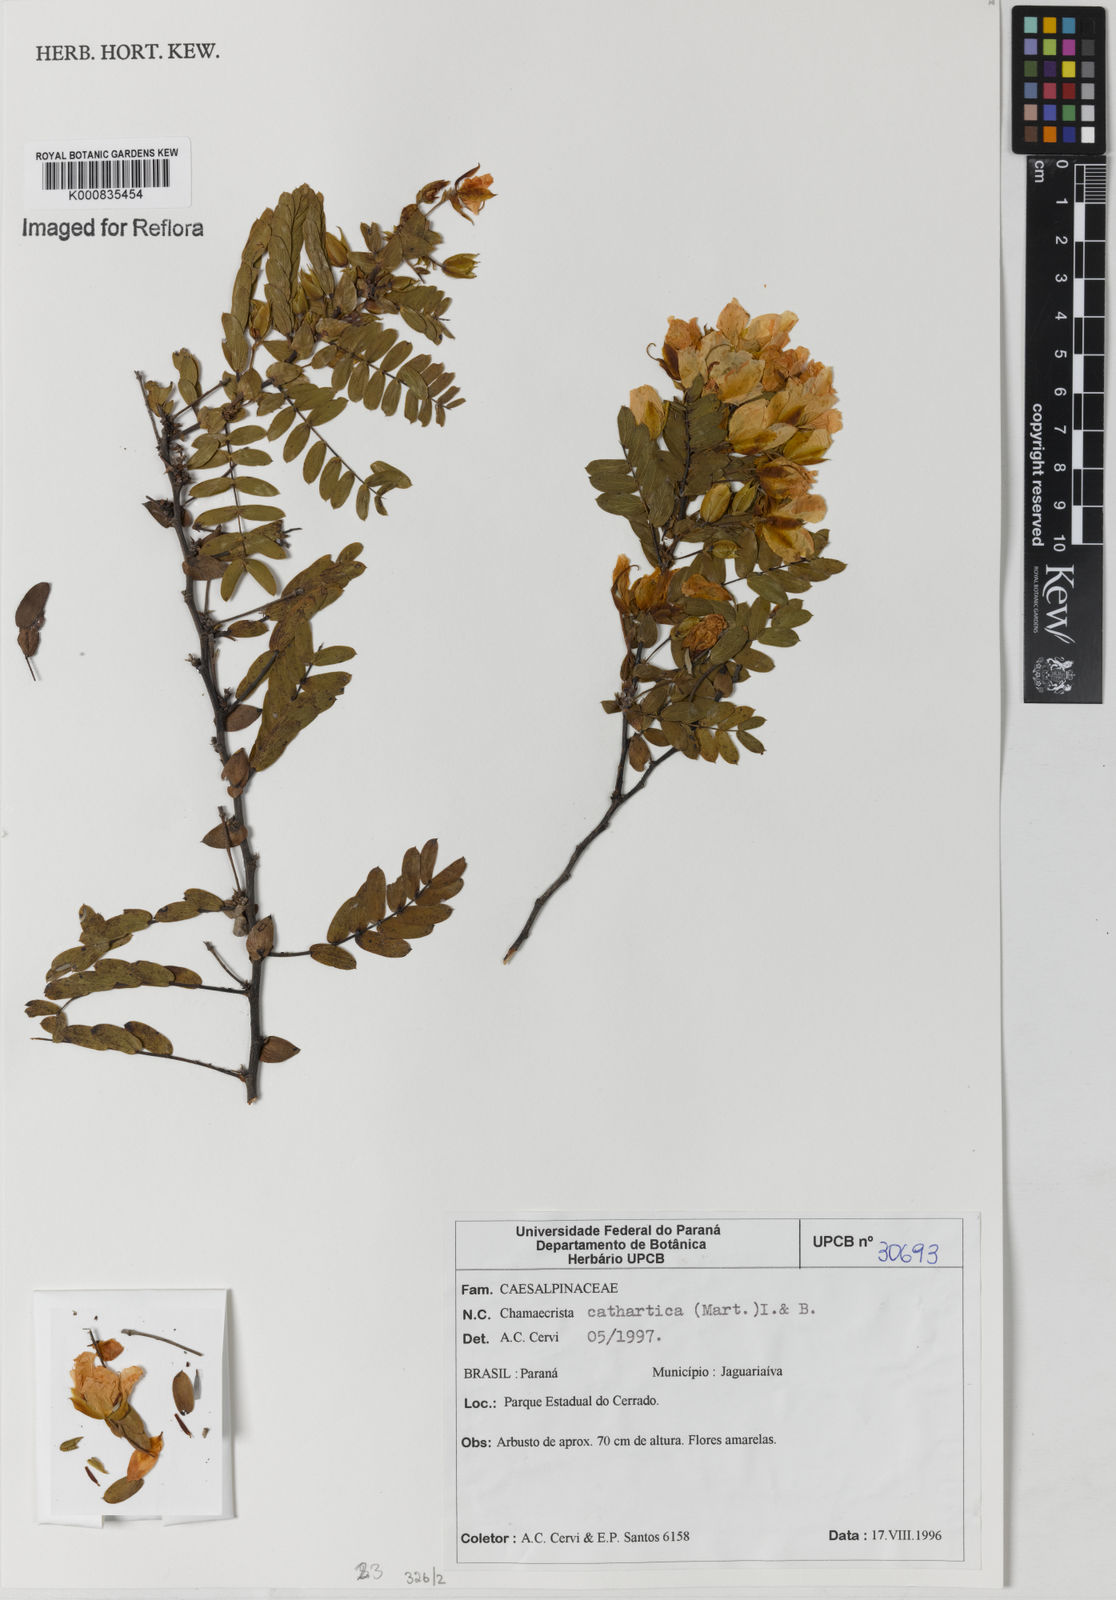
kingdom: Plantae
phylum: Tracheophyta
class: Magnoliopsida
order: Fabales
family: Fabaceae
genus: Chamaecrista
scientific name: Chamaecrista cathartica
